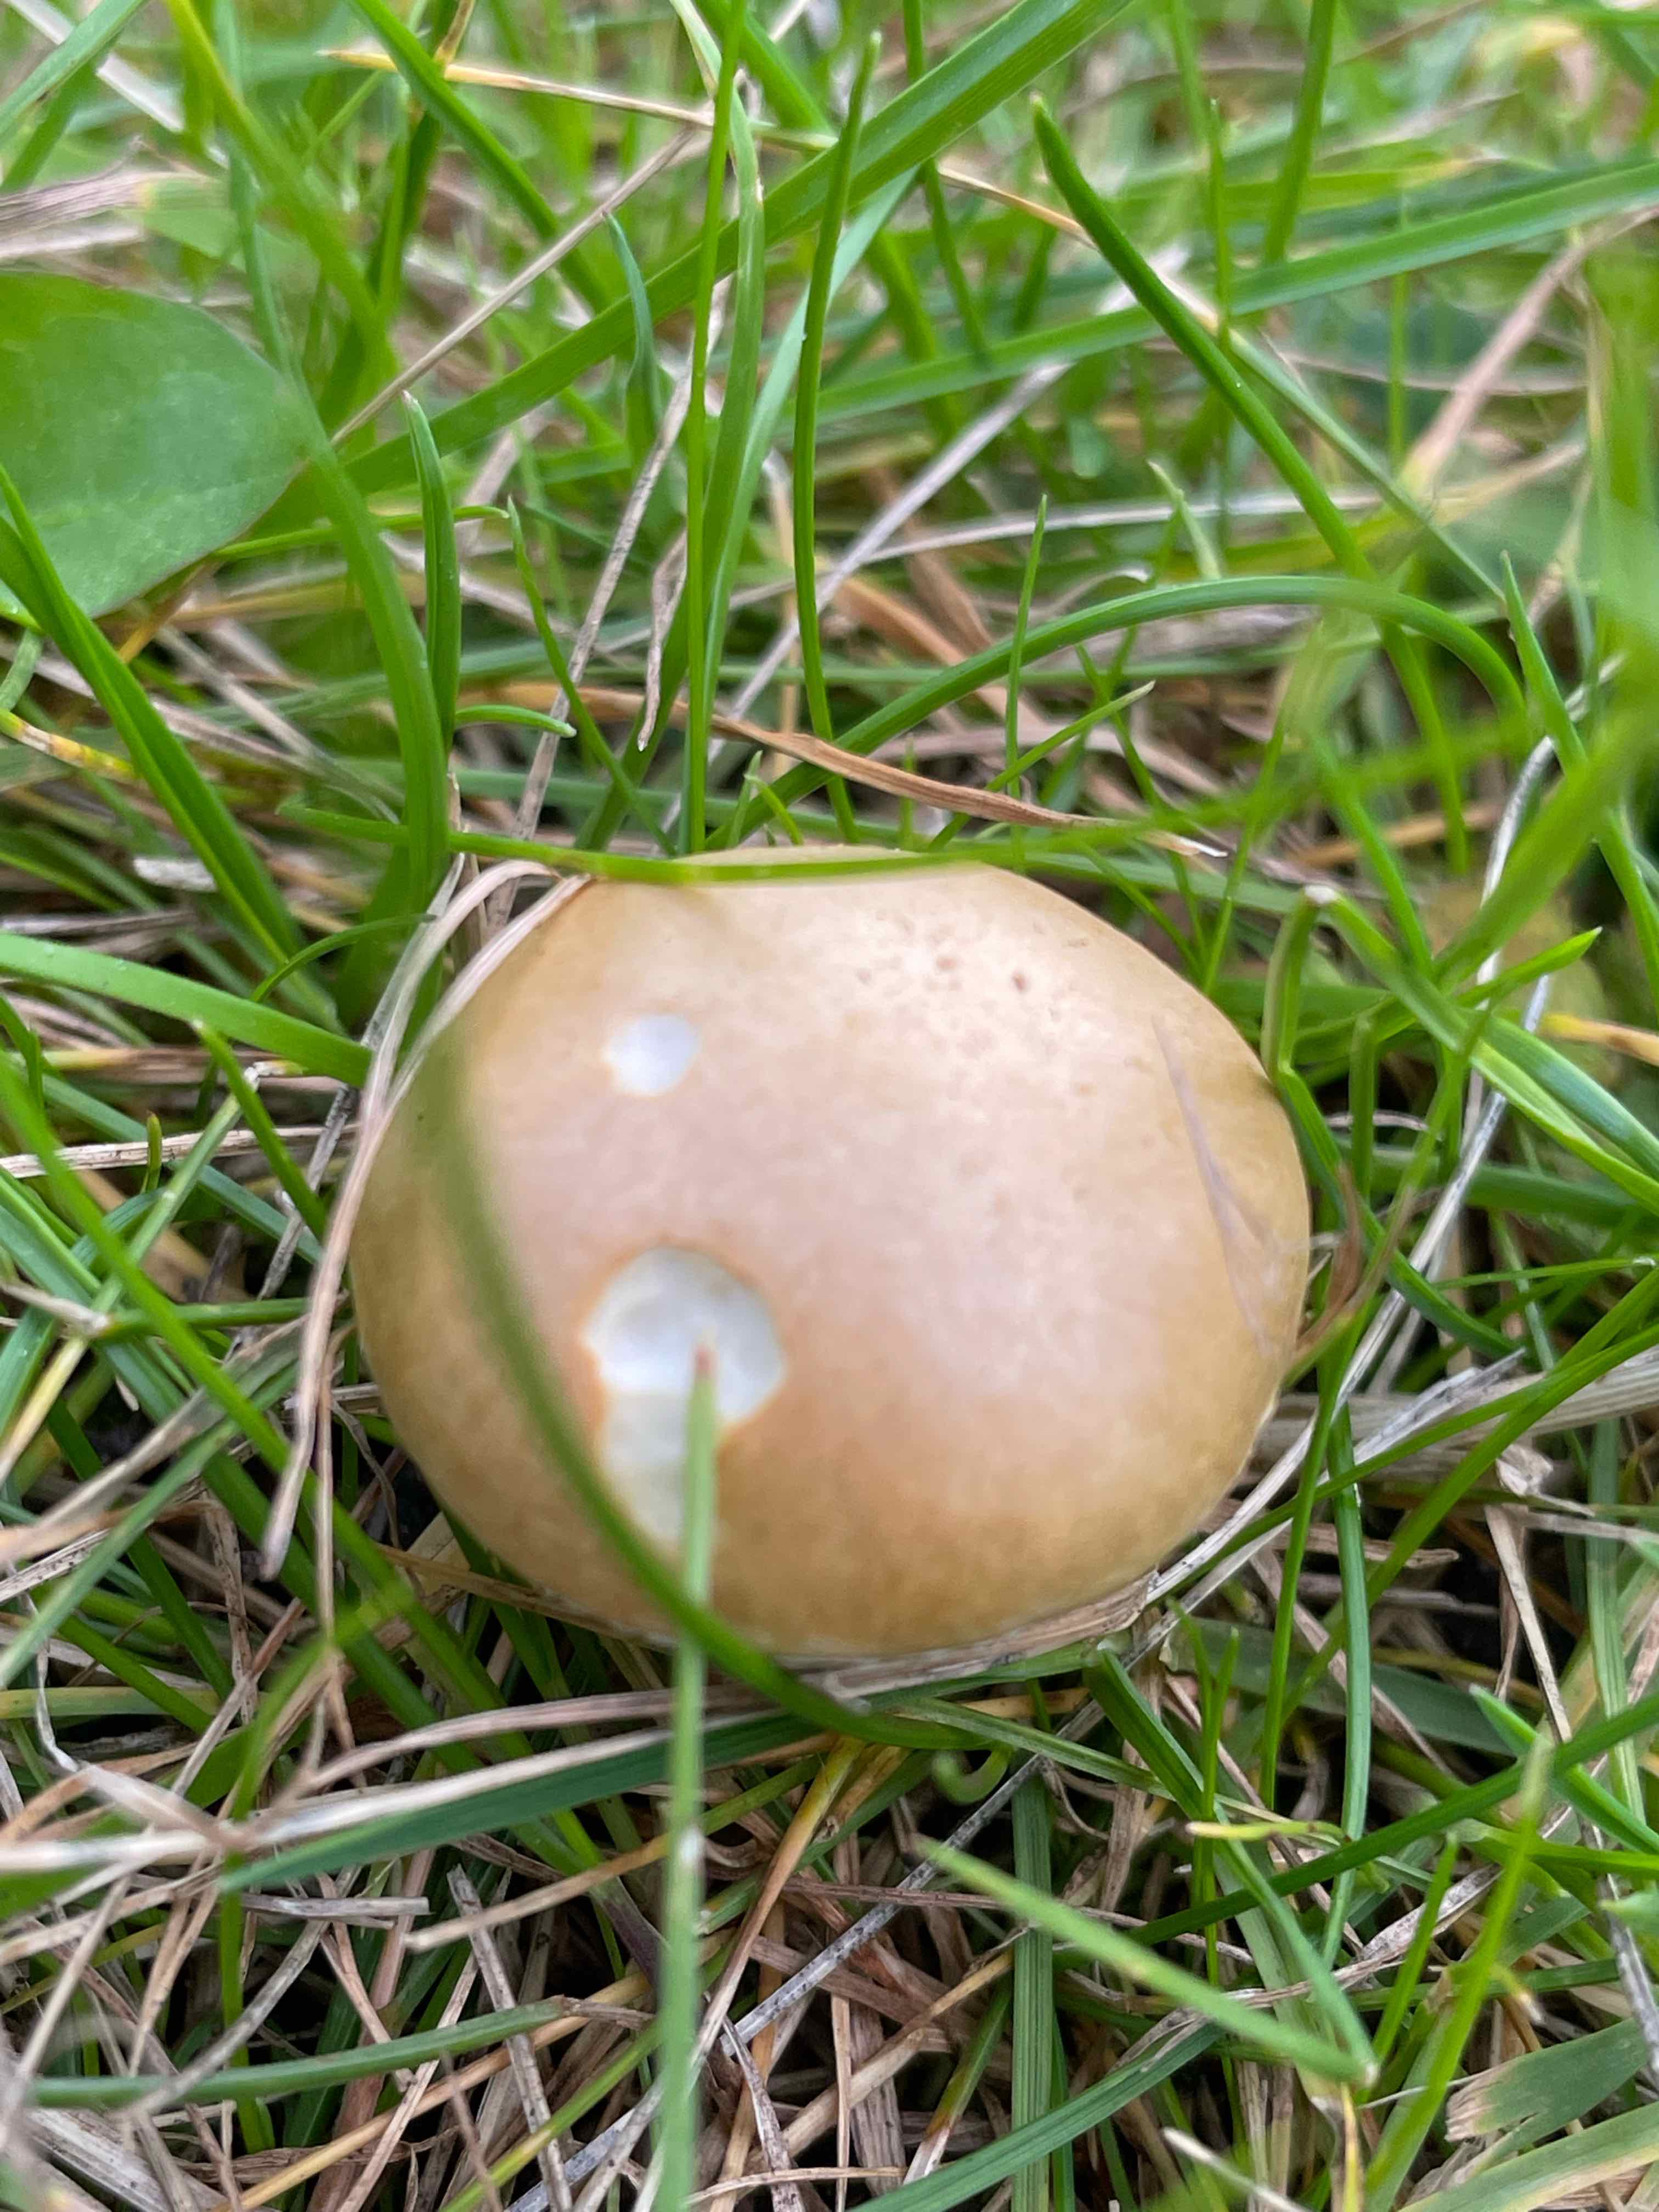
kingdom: Fungi
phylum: Basidiomycota
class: Agaricomycetes
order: Agaricales
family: Hymenogastraceae
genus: Psilocybe
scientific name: Psilocybe coronilla
